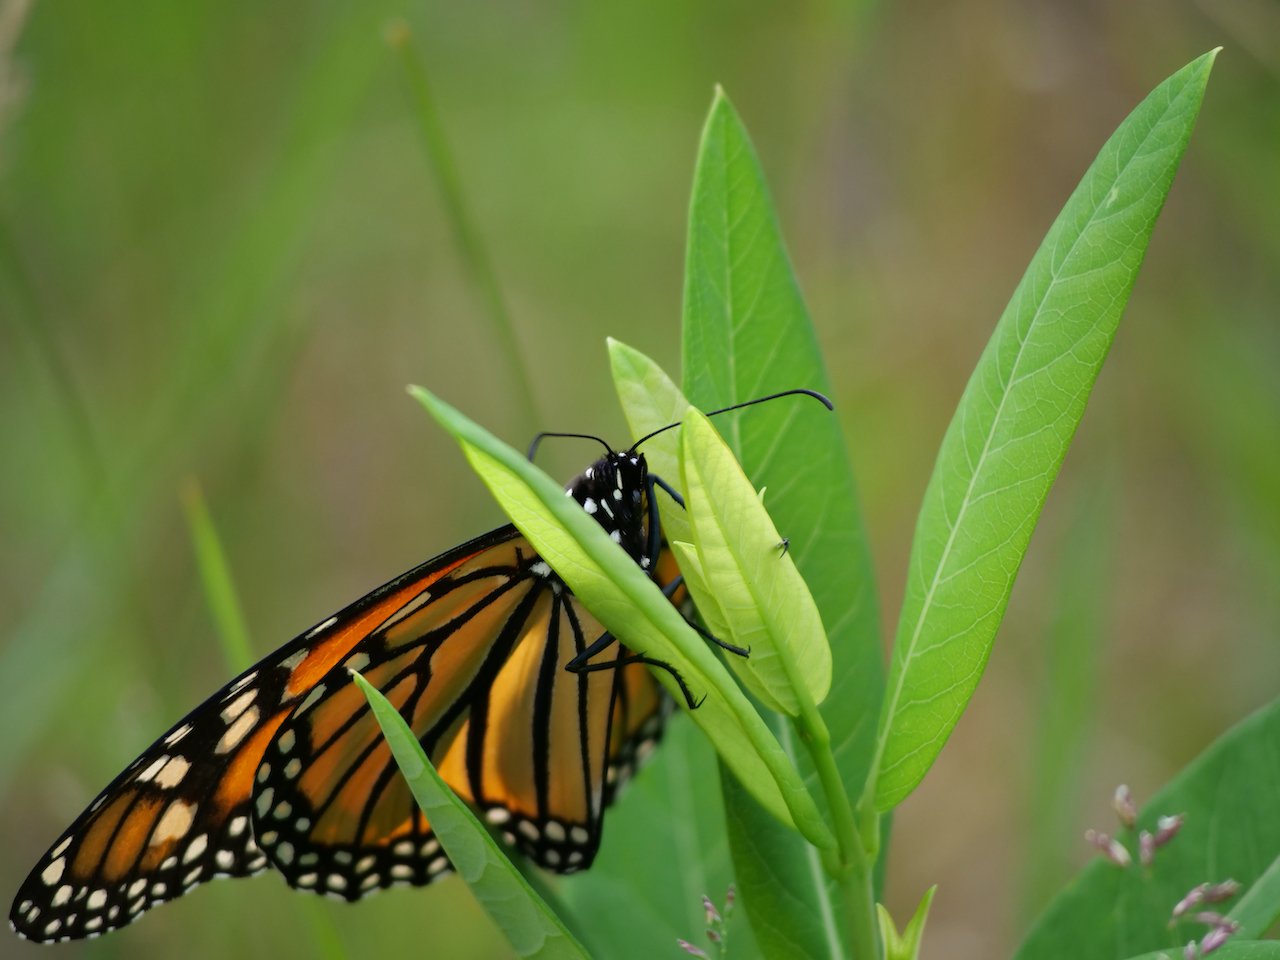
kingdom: Animalia
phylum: Arthropoda
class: Insecta
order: Lepidoptera
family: Nymphalidae
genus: Danaus
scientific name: Danaus plexippus
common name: Monarch
